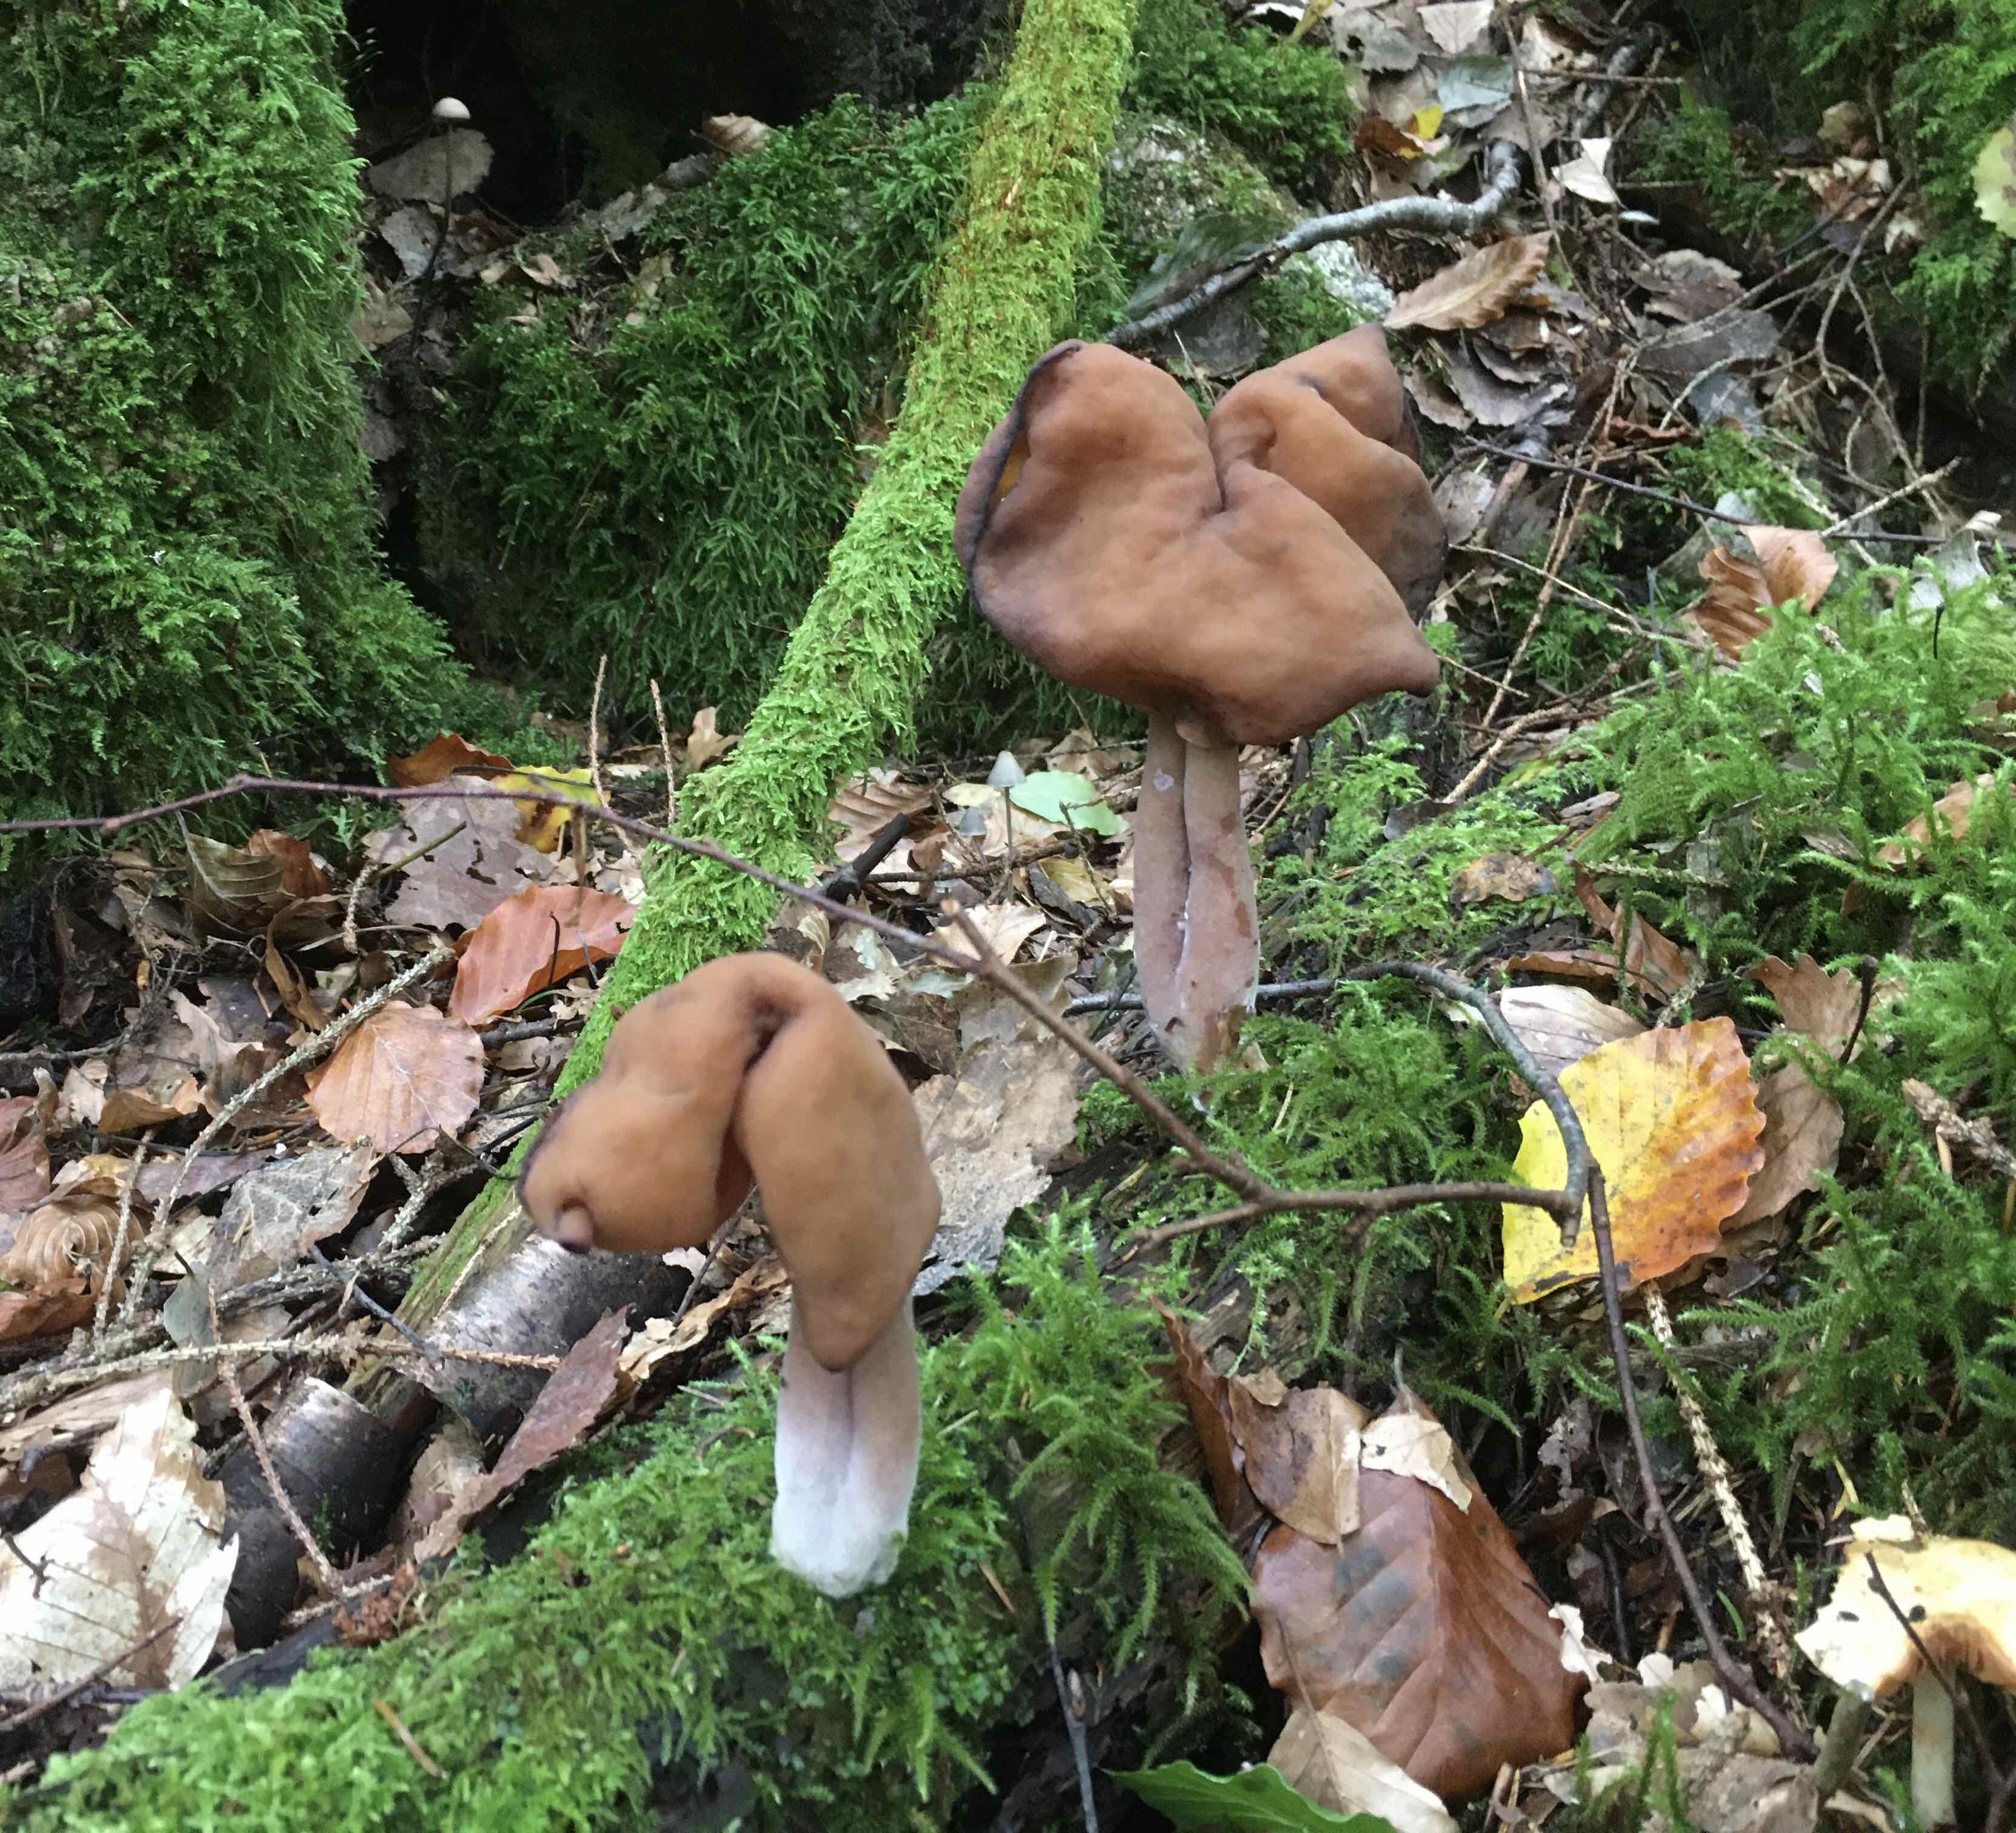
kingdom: Fungi
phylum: Ascomycota
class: Pezizomycetes
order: Pezizales
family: Discinaceae
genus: Gyromitra
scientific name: Gyromitra infula
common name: bispehue-stenmorkel
